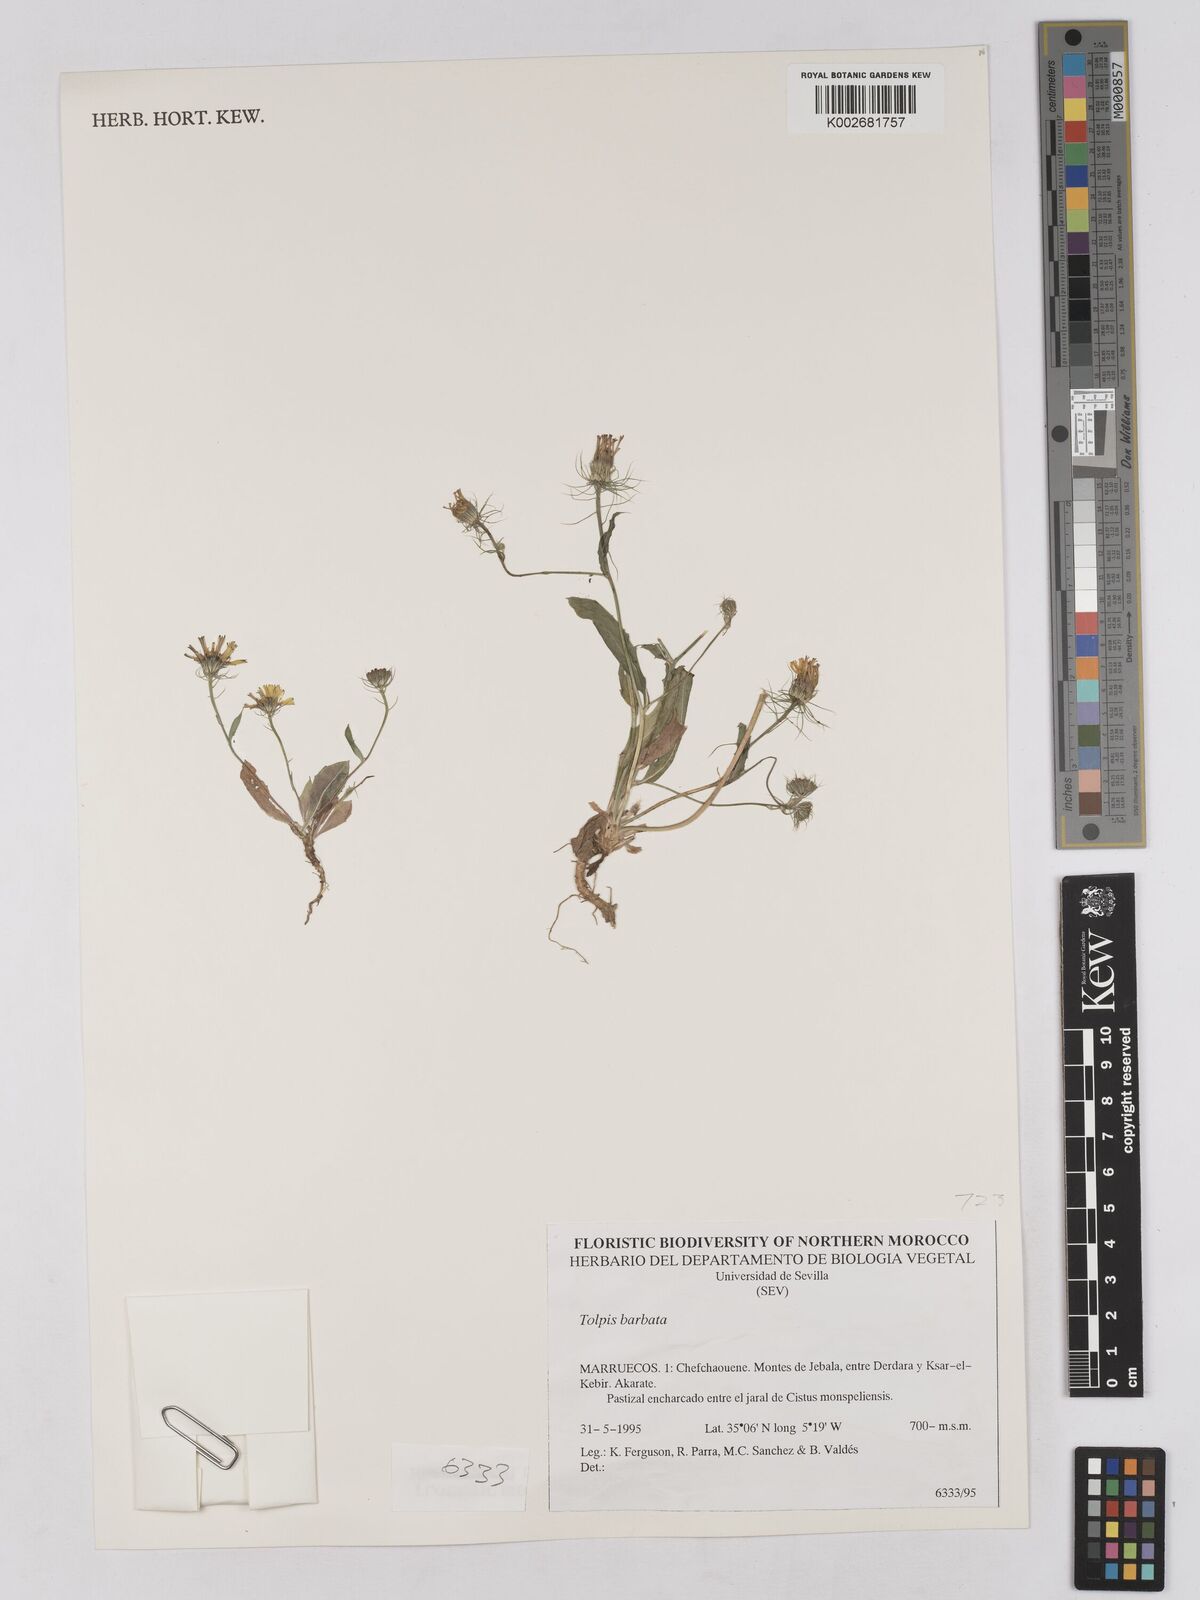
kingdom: Plantae
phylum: Tracheophyta
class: Magnoliopsida
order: Asterales
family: Asteraceae
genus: Tolpis
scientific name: Tolpis barbata
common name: Yellow hawkweed
